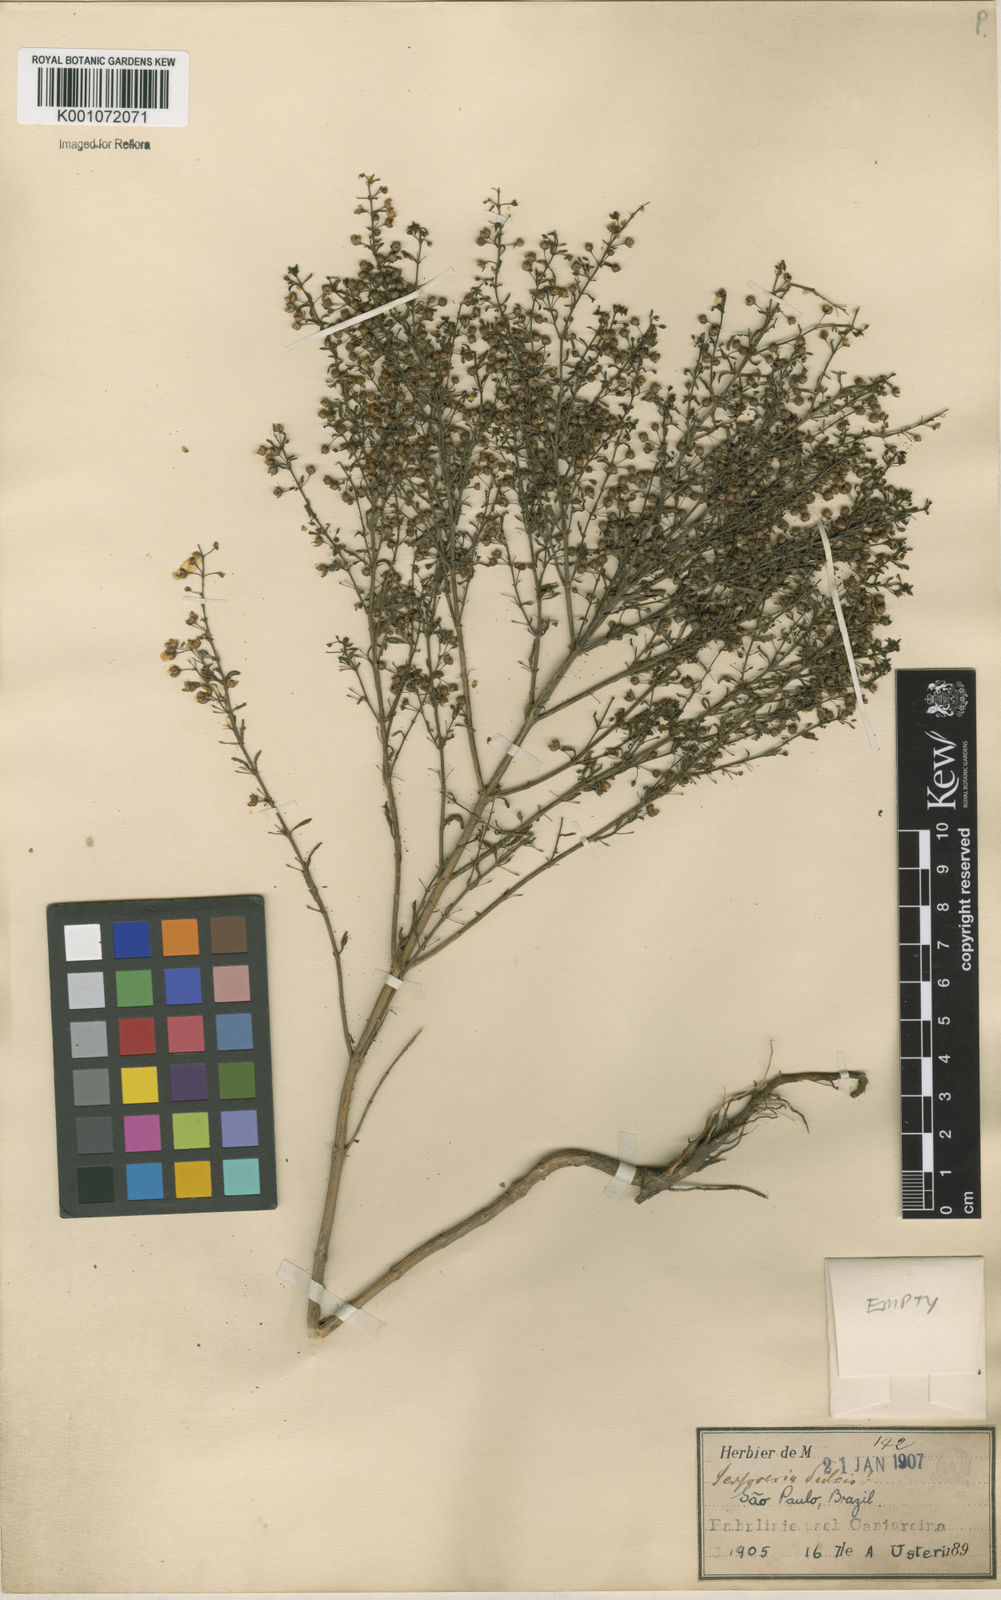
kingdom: Plantae
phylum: Tracheophyta
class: Magnoliopsida
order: Lamiales
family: Plantaginaceae
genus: Scoparia
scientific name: Scoparia dulcis
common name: Scoparia-weed
